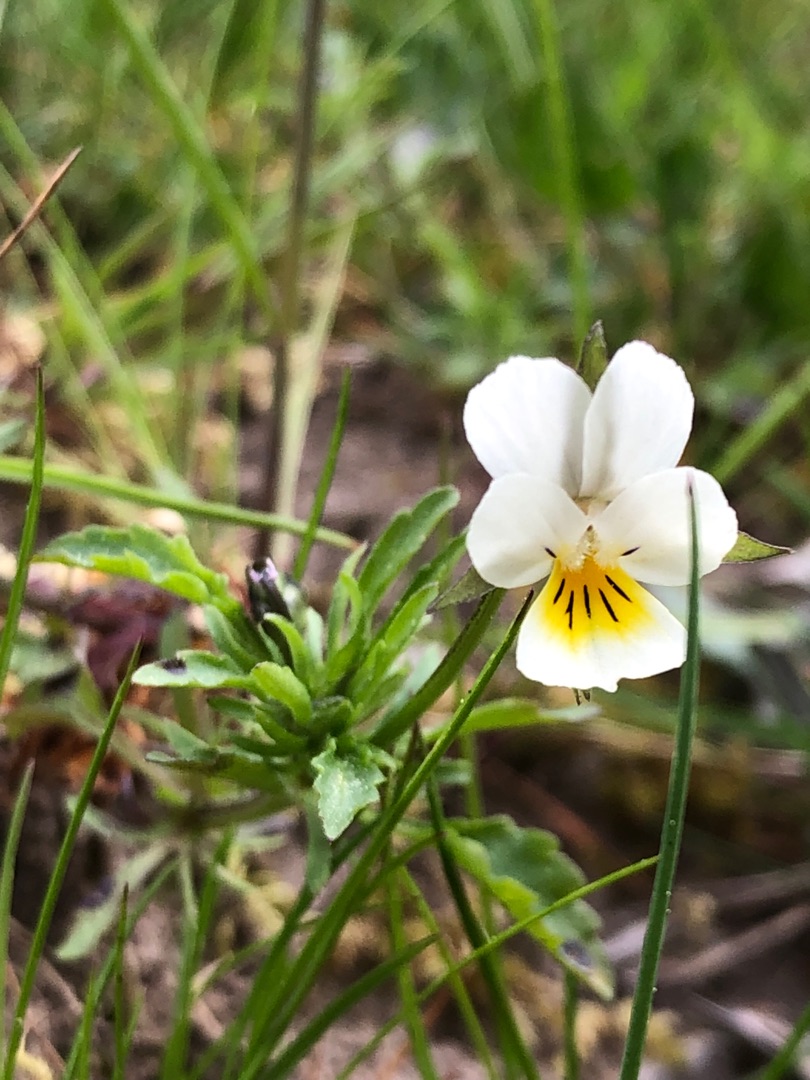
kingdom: Plantae
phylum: Tracheophyta
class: Magnoliopsida
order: Malpighiales
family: Violaceae
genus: Viola
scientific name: Viola tricolor
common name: Stedmoderblomst
